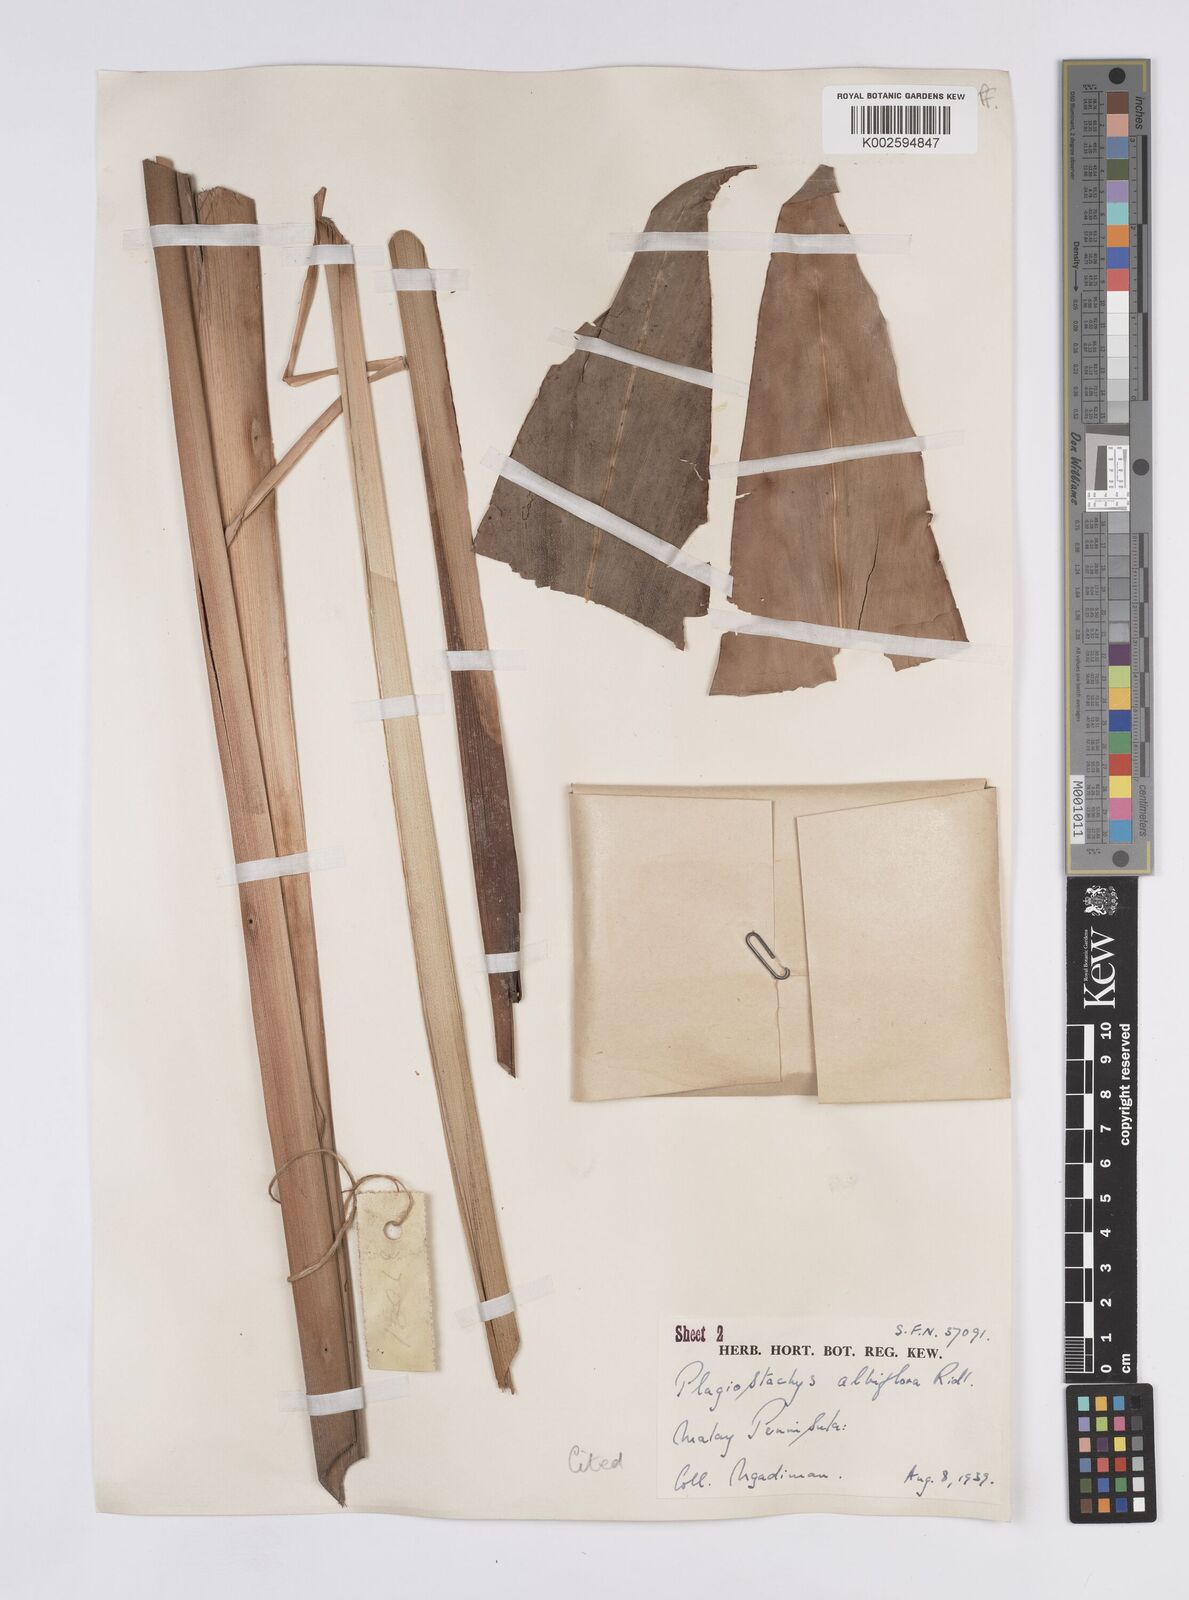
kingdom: Plantae
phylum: Tracheophyta
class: Liliopsida
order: Zingiberales
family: Zingiberaceae
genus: Plagiostachys
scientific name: Plagiostachys albiflora
